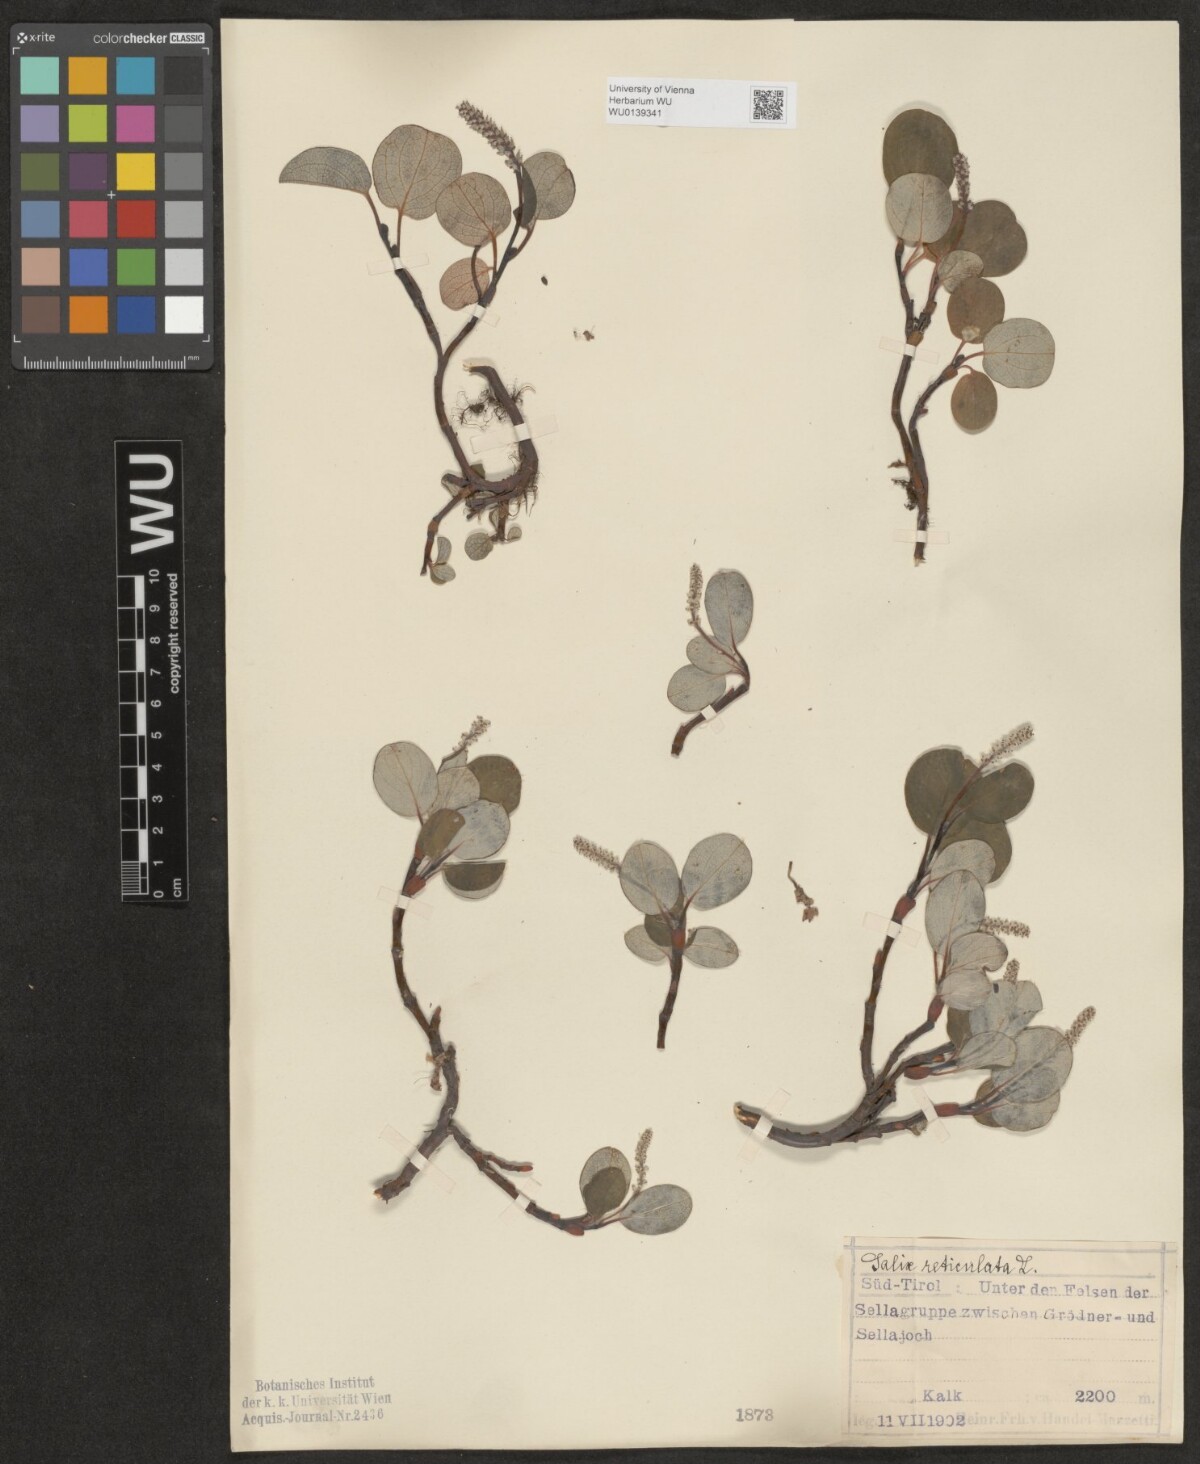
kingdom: Plantae
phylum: Tracheophyta
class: Magnoliopsida
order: Malpighiales
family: Salicaceae
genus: Salix
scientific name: Salix reticulata
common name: Net-leaved willow
